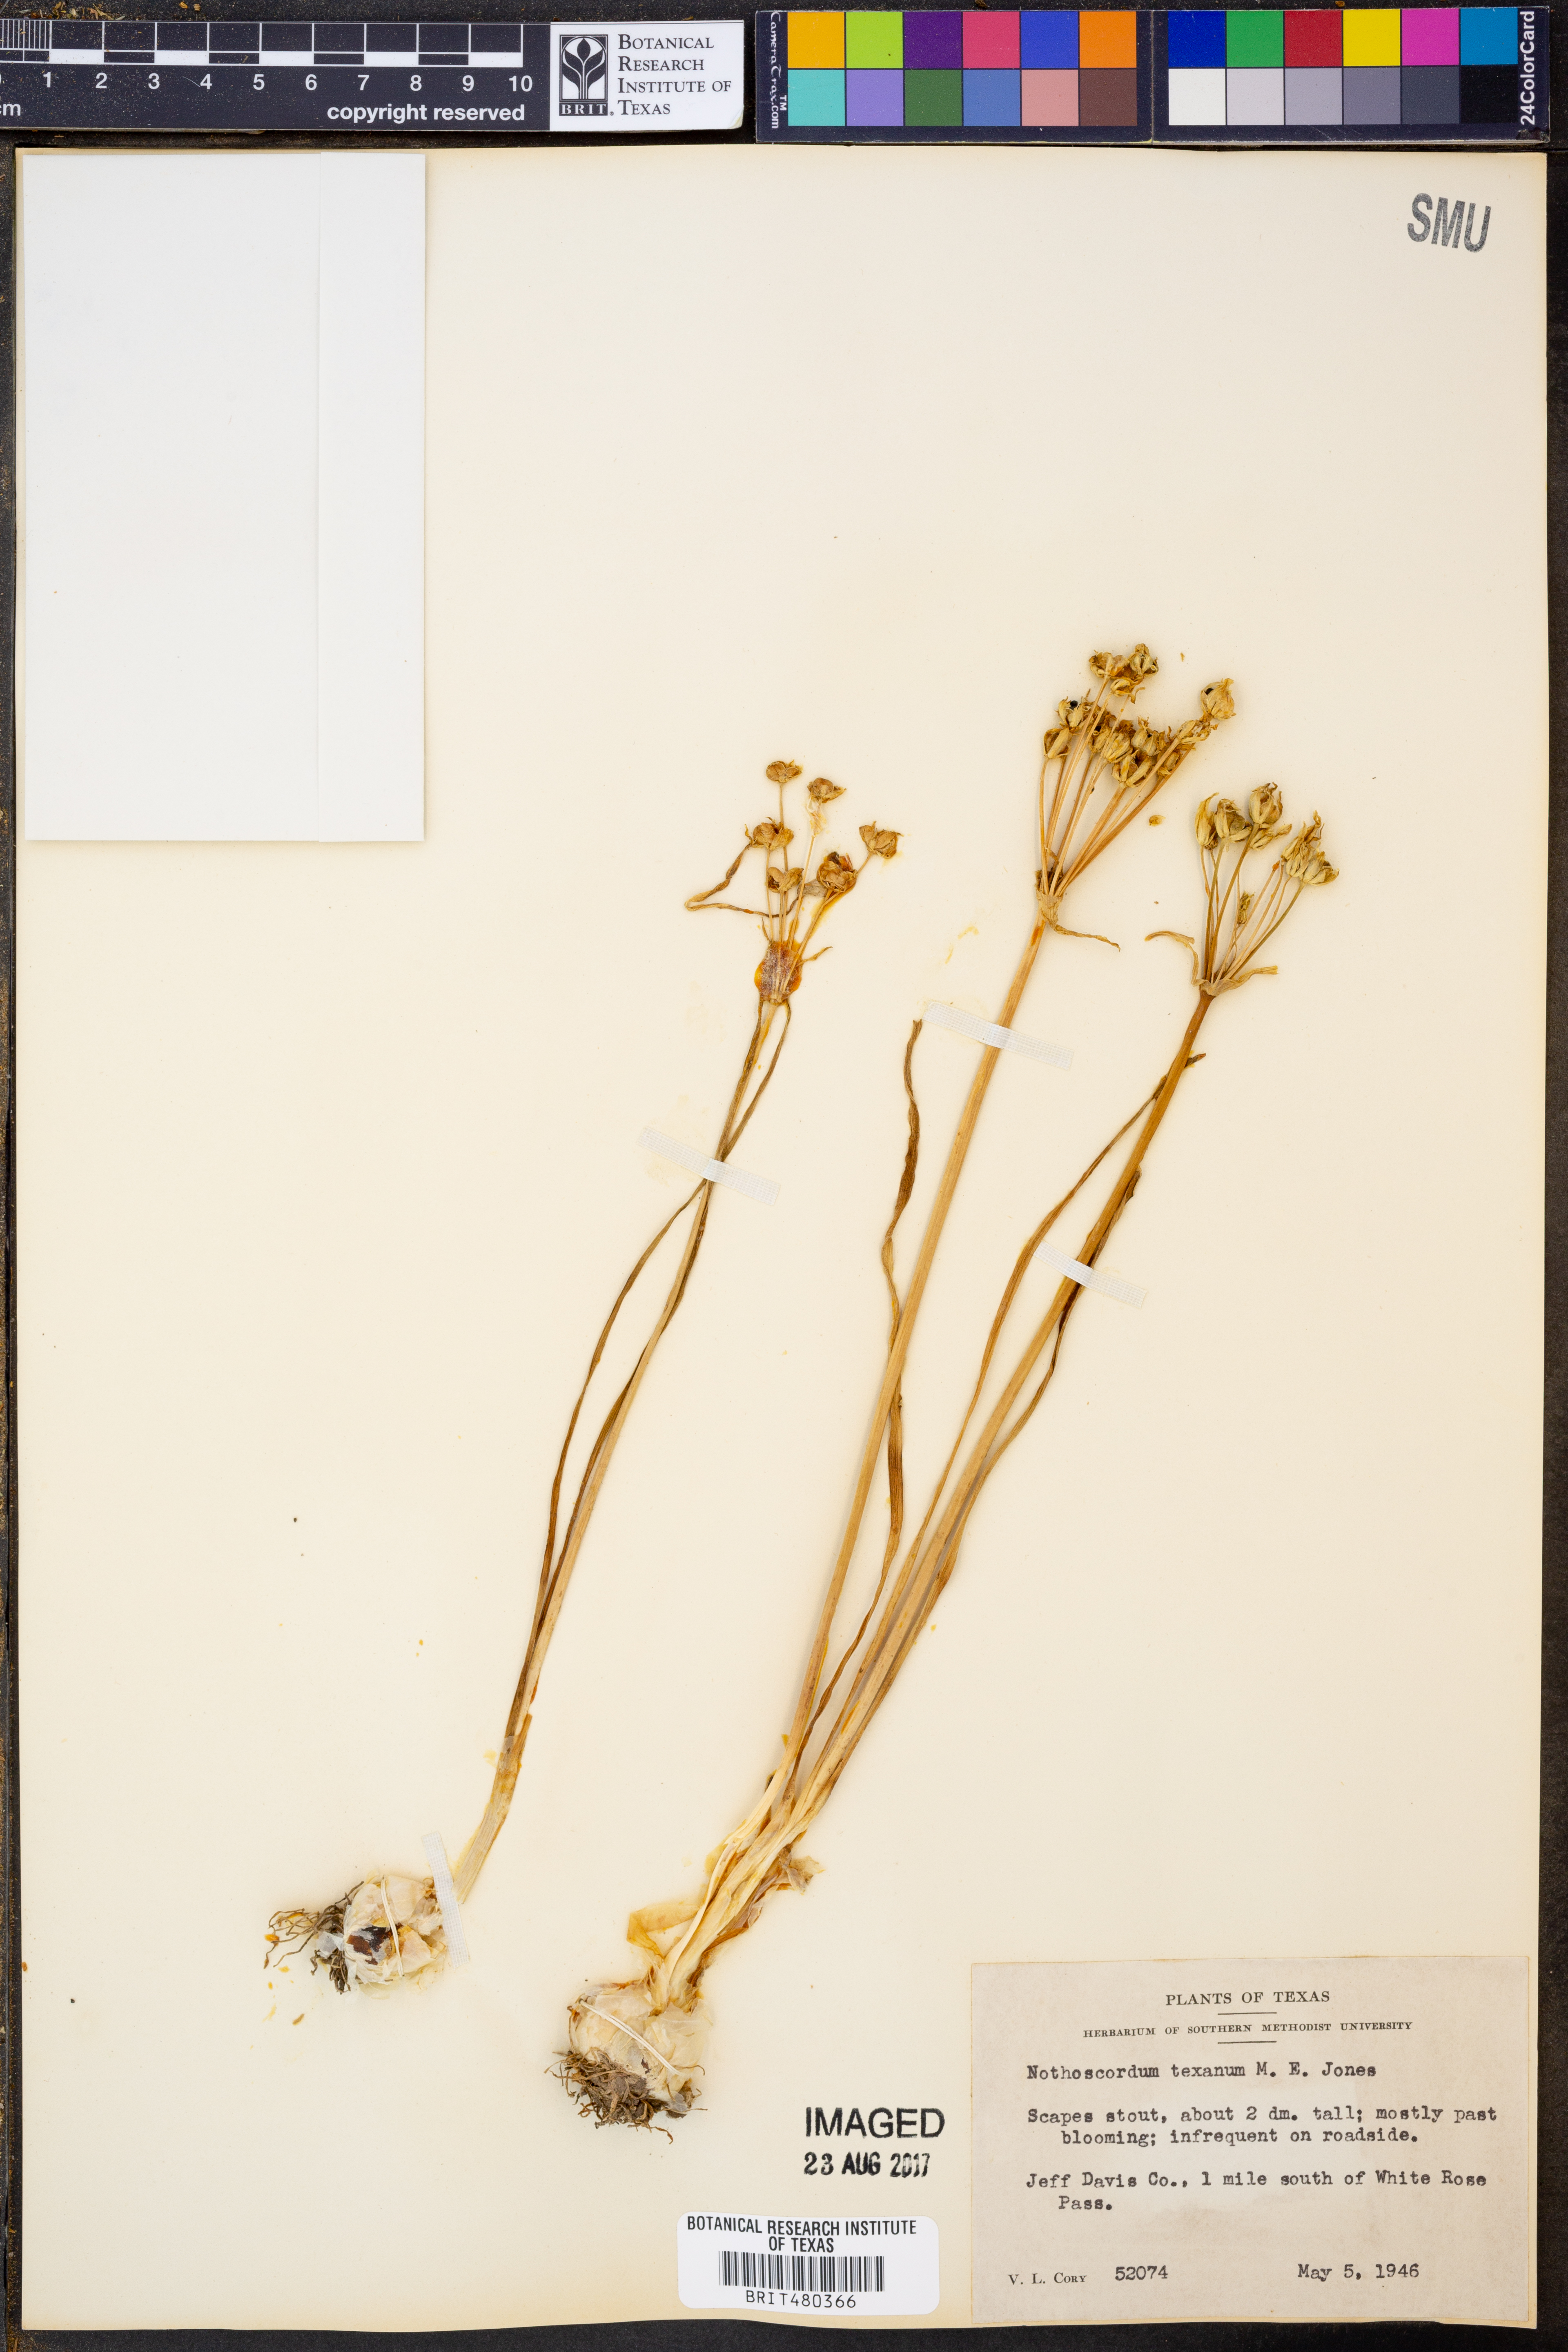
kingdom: Plantae
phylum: Tracheophyta
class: Liliopsida
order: Asparagales
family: Amaryllidaceae
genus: Nothoscordum
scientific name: Nothoscordum bivalve
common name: Crow-poison
